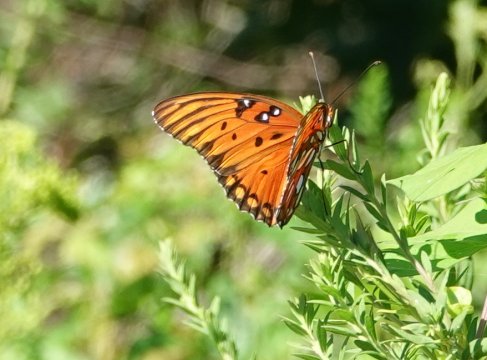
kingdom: Animalia
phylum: Arthropoda
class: Insecta
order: Lepidoptera
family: Nymphalidae
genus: Dione
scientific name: Dione vanillae
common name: Gulf Fritillary
